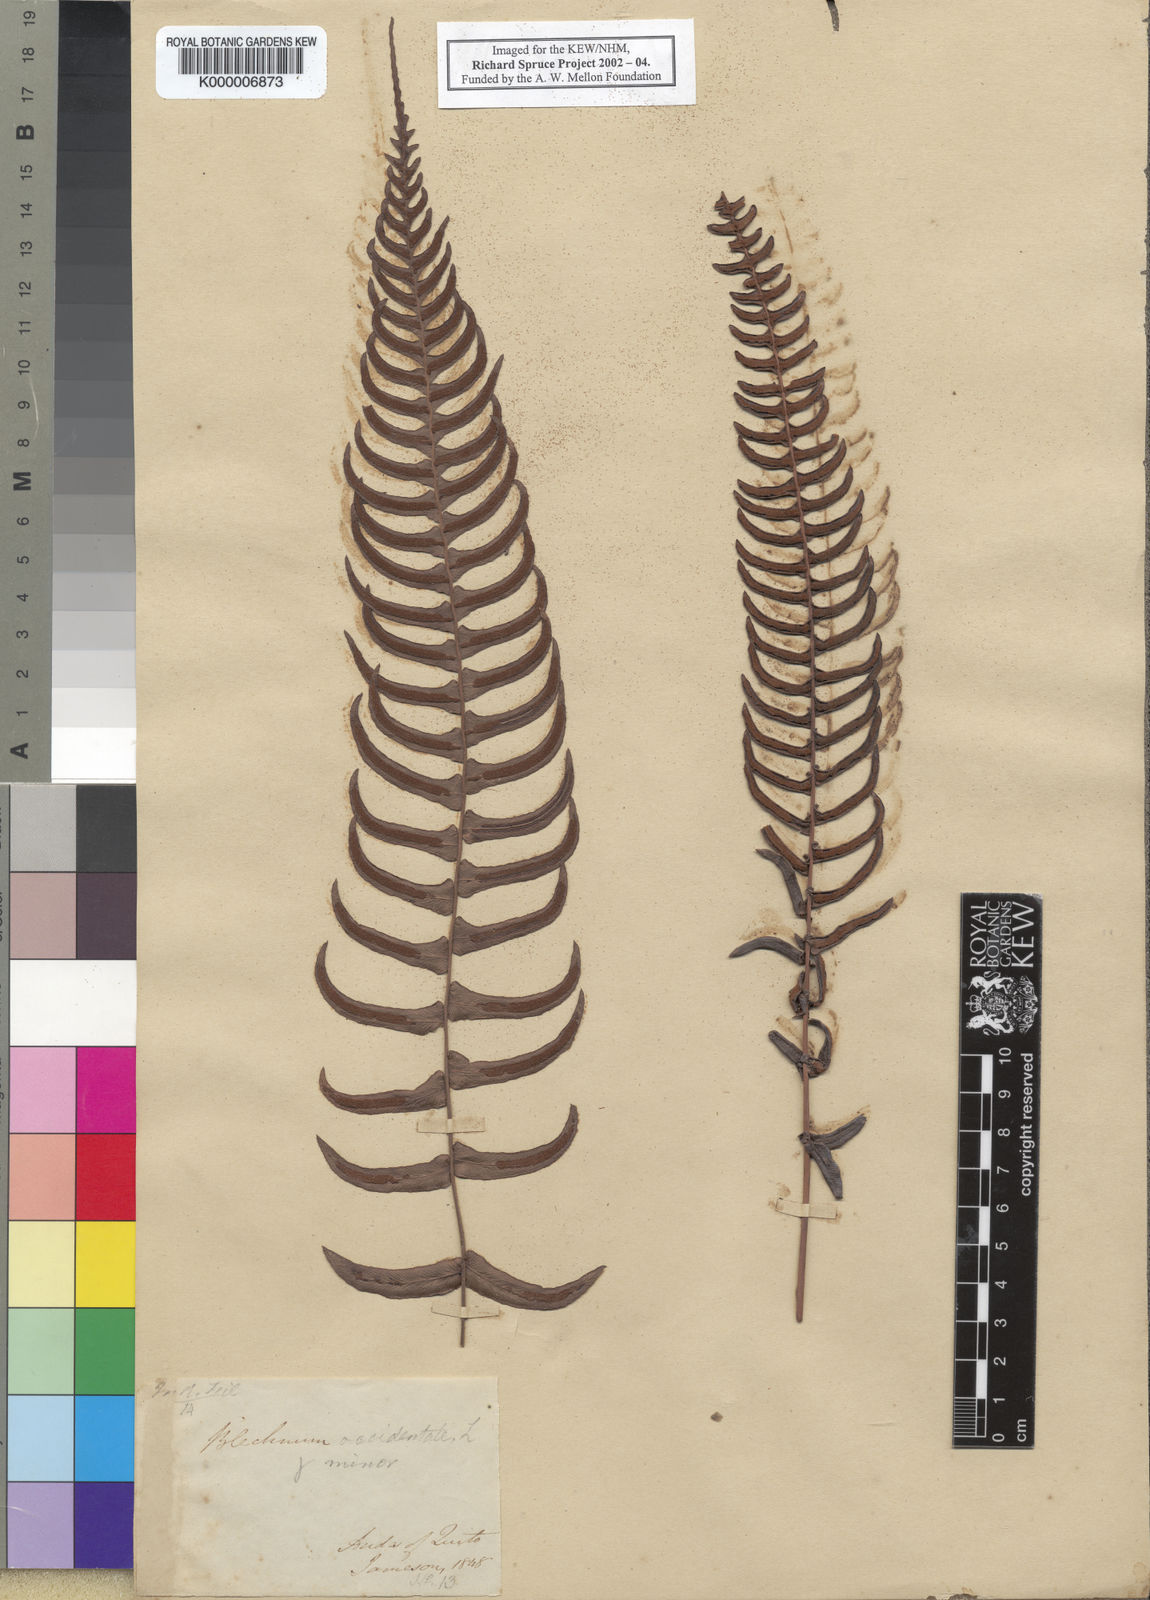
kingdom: Plantae
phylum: Tracheophyta
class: Polypodiopsida
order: Polypodiales
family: Blechnaceae
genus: Blechnum
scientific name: Blechnum occidentale
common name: Hammock fern
